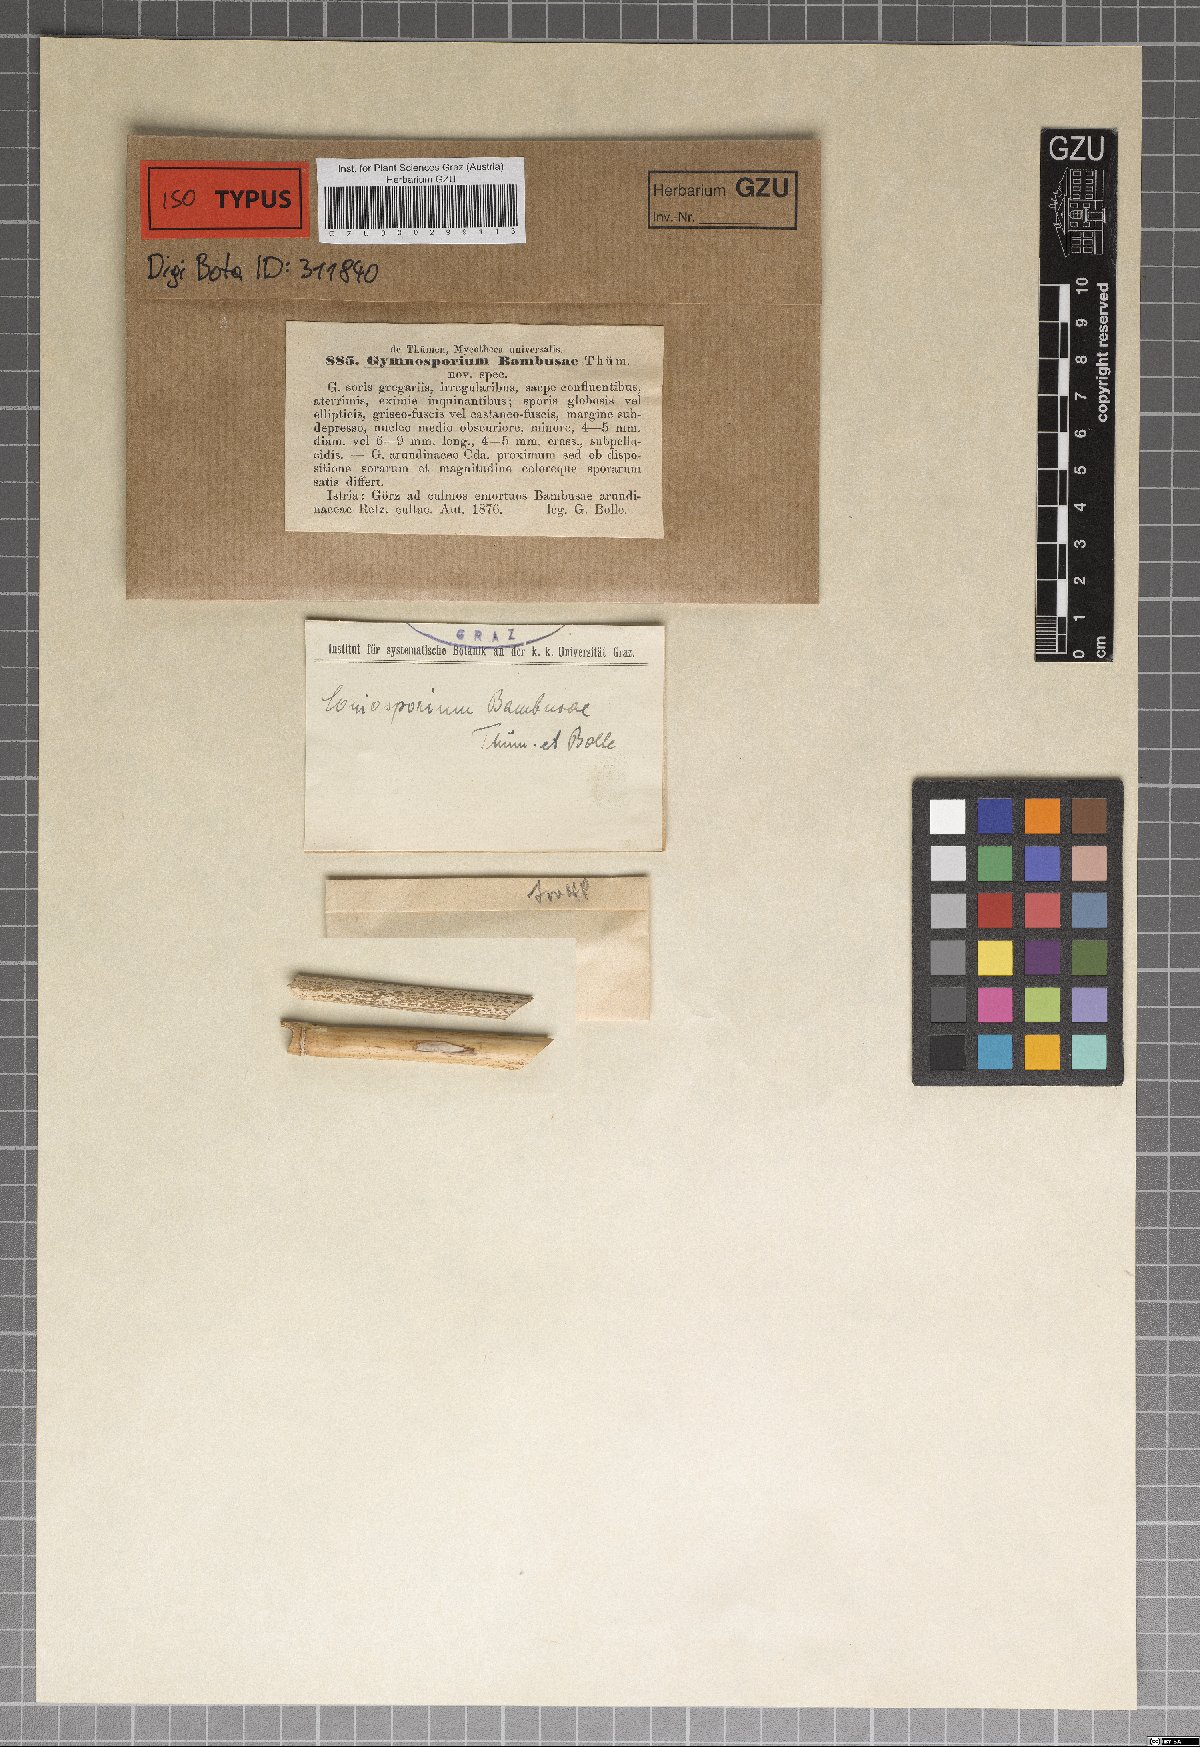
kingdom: Fungi
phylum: Ascomycota
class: Sordariomycetes
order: Xylariales
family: Apiosporaceae
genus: Apiospora
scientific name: Apiospora arundinis
